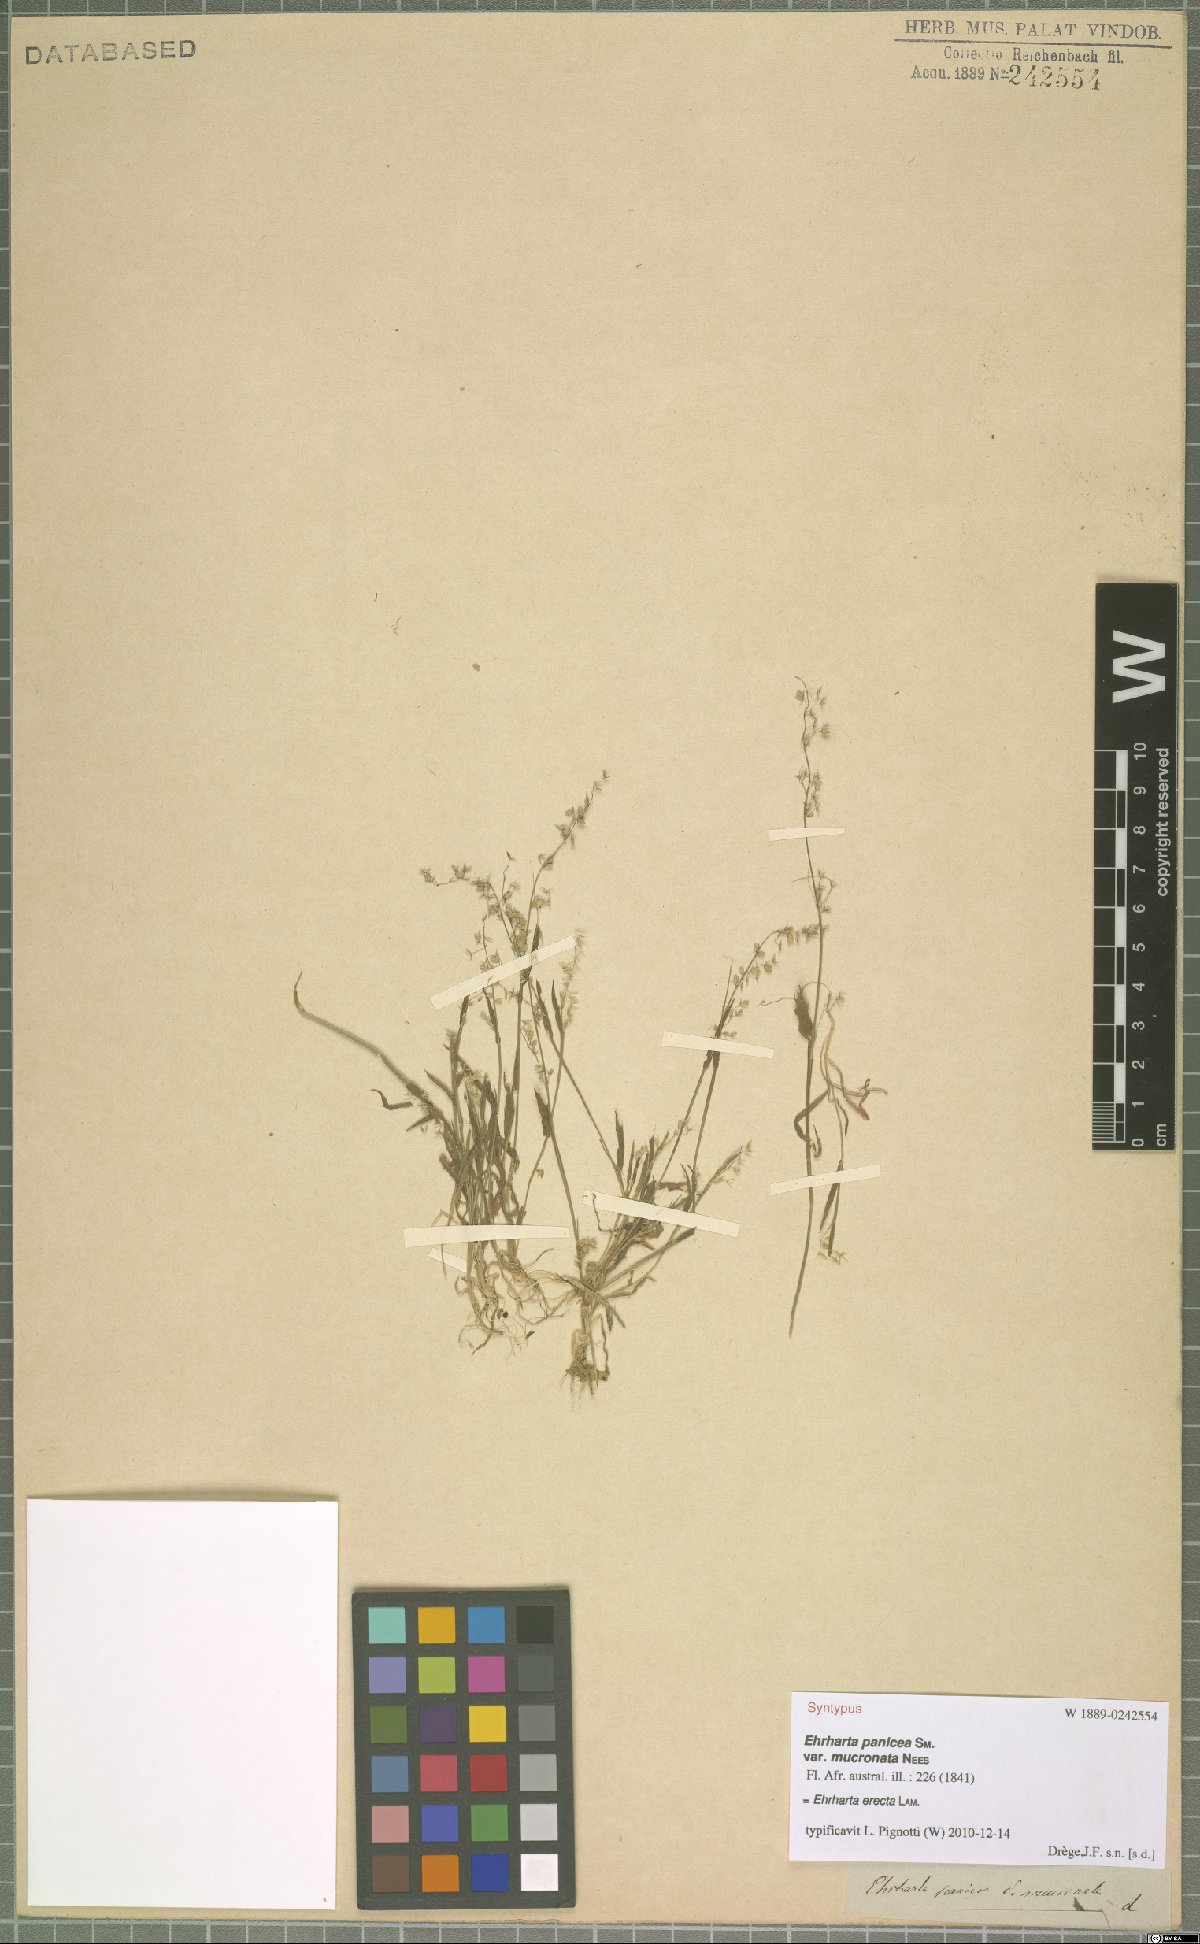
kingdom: Plantae
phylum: Tracheophyta
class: Liliopsida
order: Poales
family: Poaceae
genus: Ehrharta
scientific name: Ehrharta erecta
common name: Panic veldtgrass
